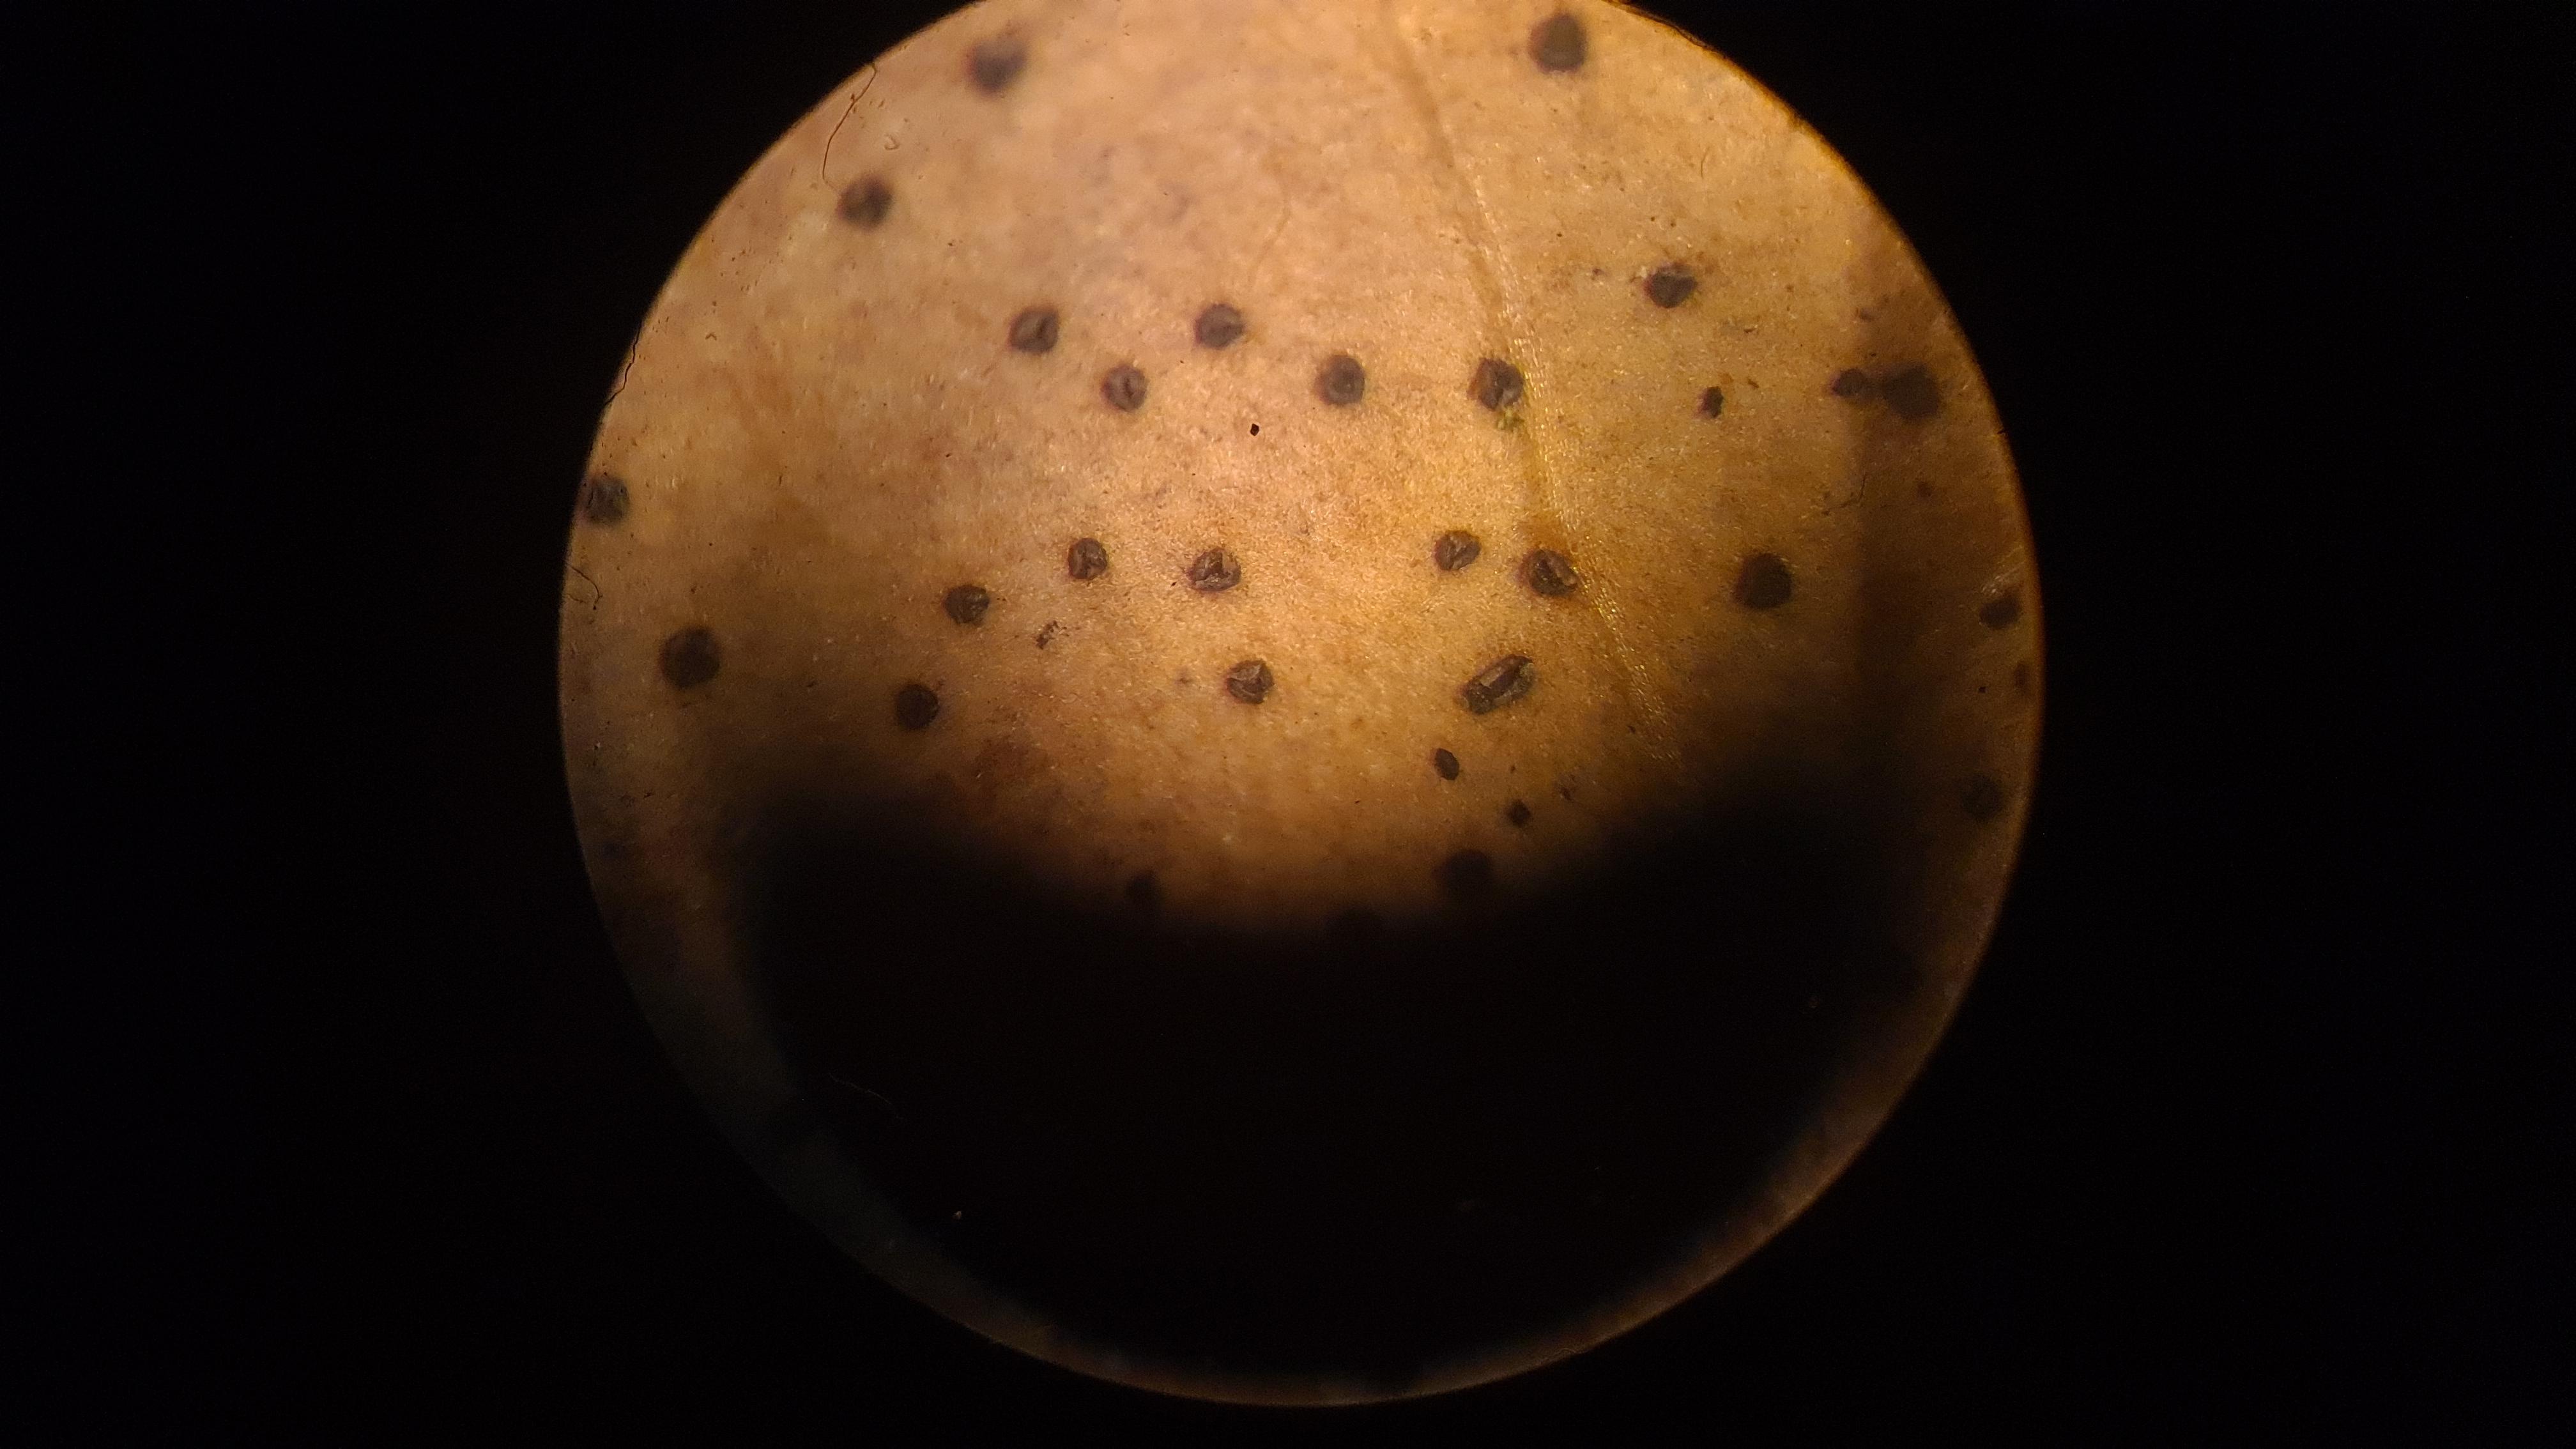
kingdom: Fungi
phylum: Ascomycota
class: Leotiomycetes
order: Helotiales
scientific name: Helotiales
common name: stilkskiveordenen
